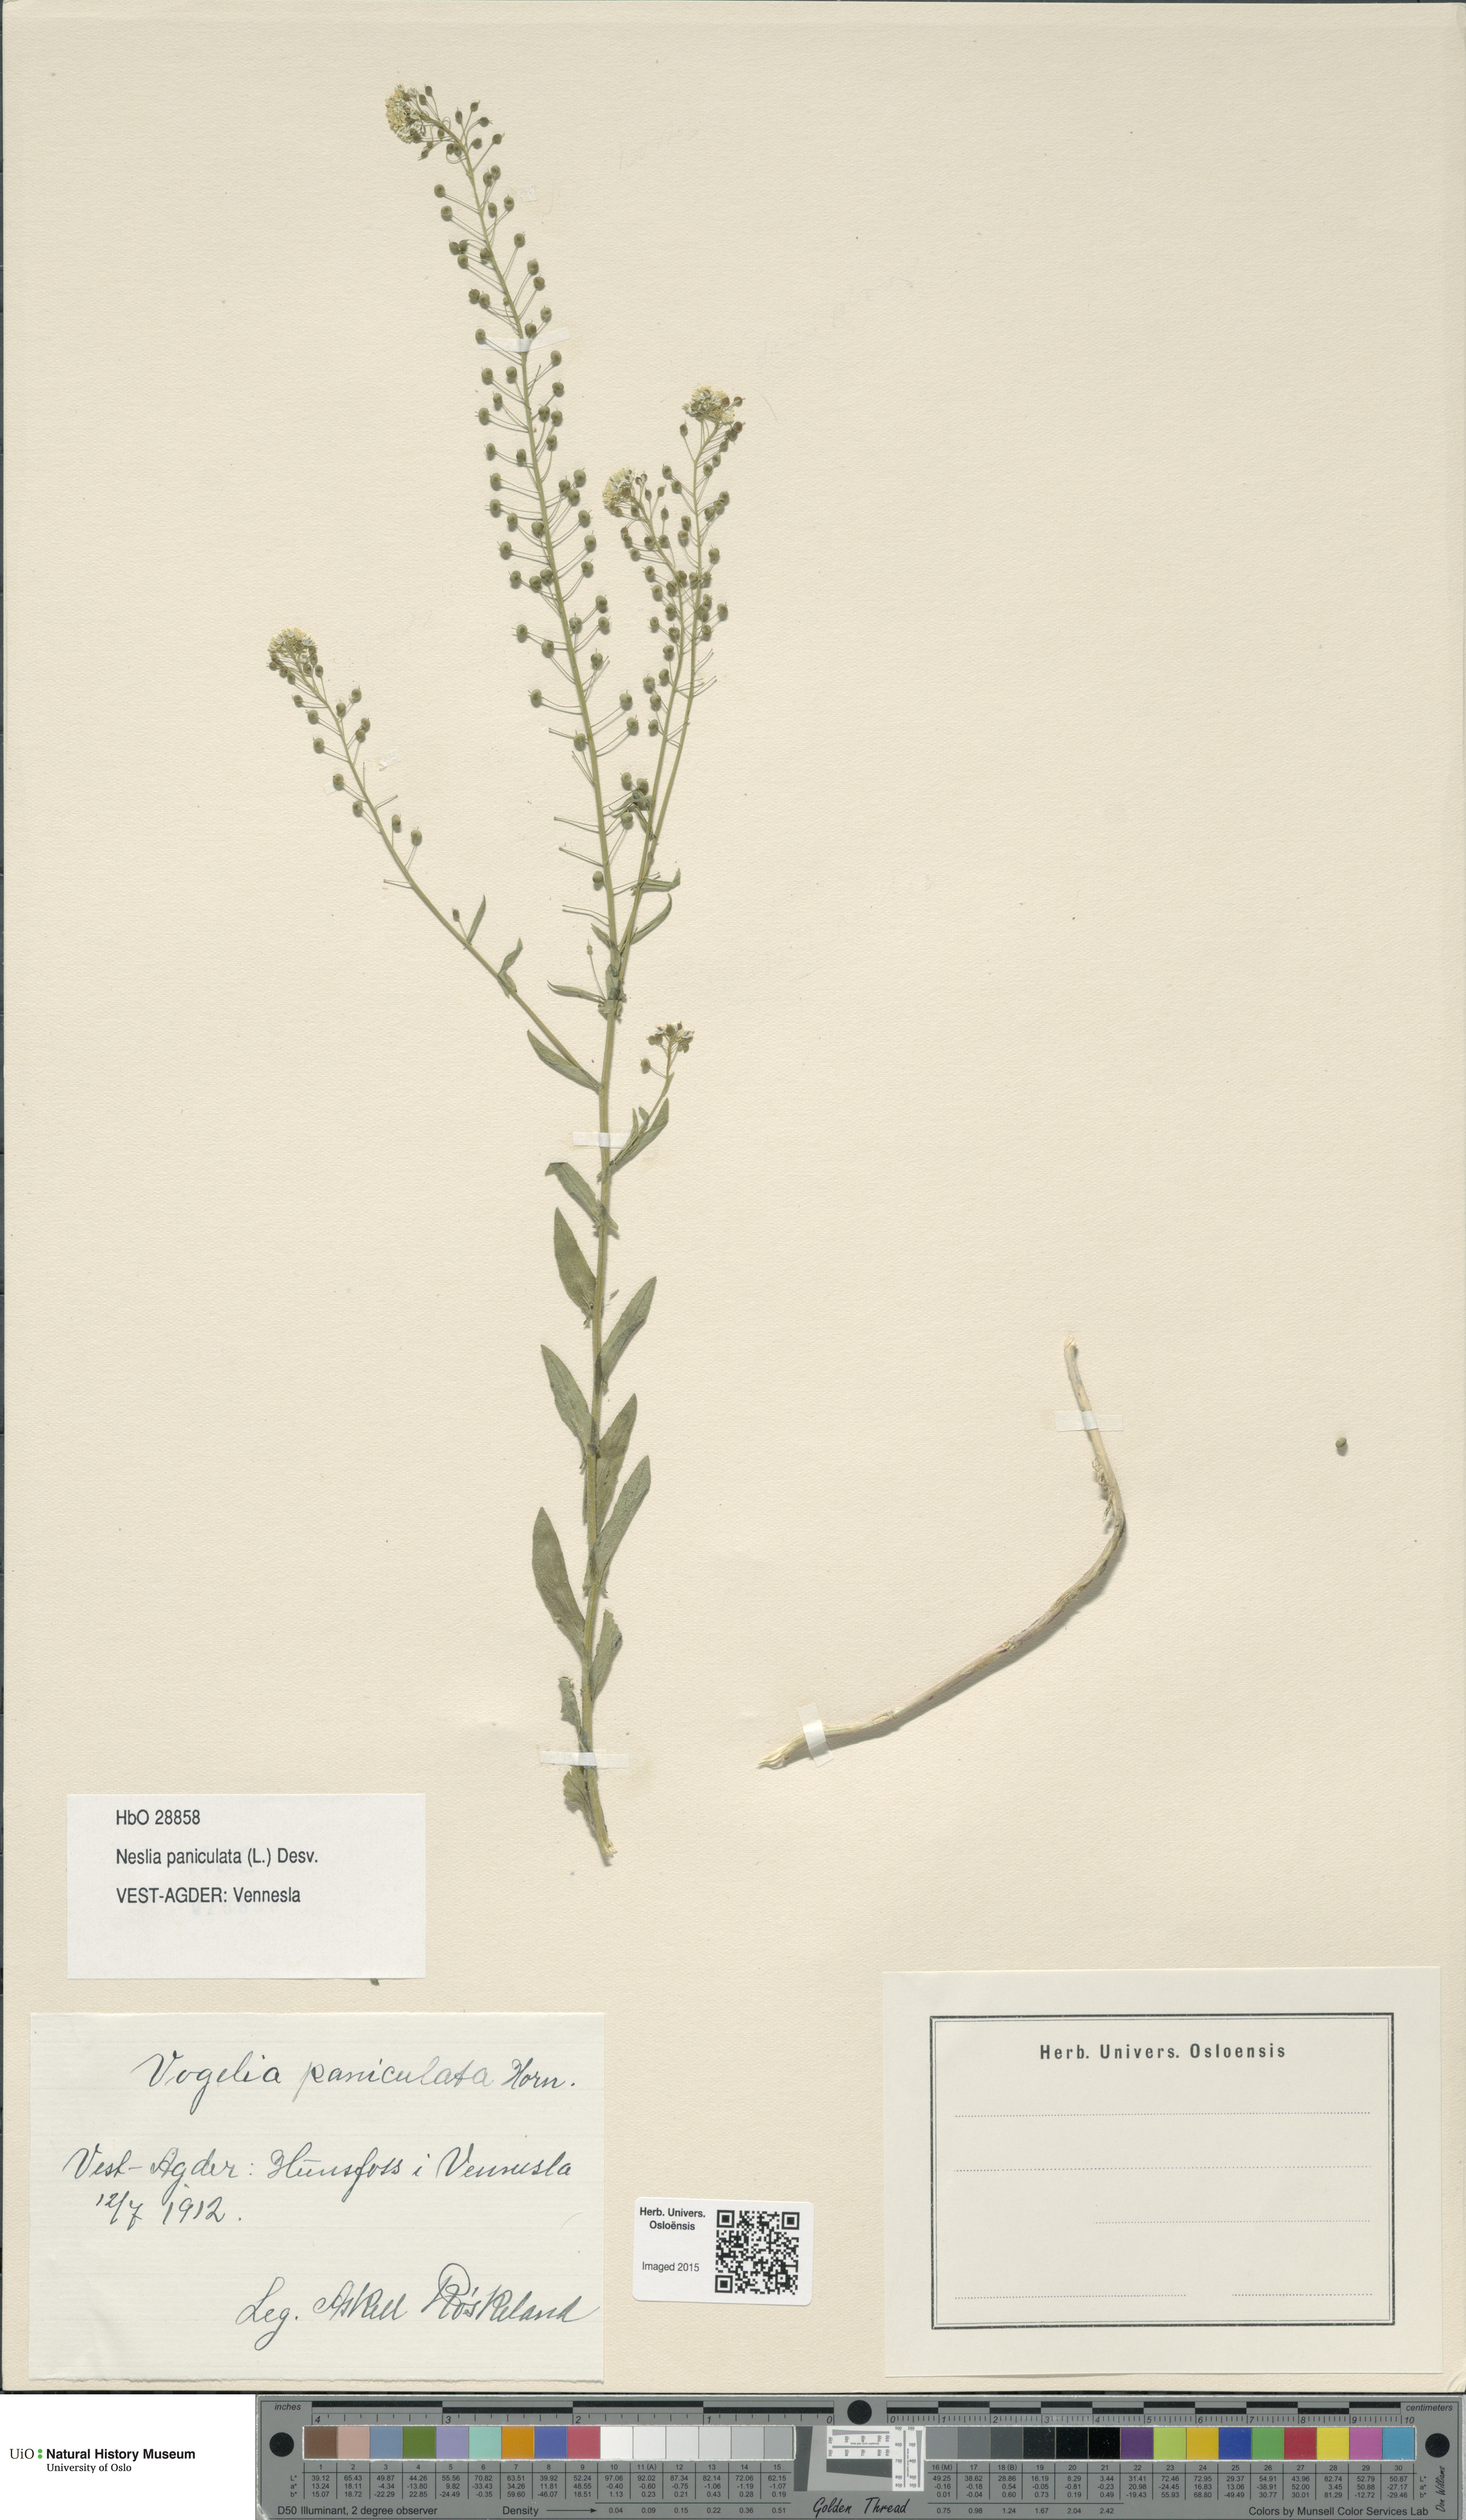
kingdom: Plantae
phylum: Tracheophyta
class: Magnoliopsida
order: Brassicales
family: Brassicaceae
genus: Neslia
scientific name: Neslia paniculata
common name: Ball mustard
